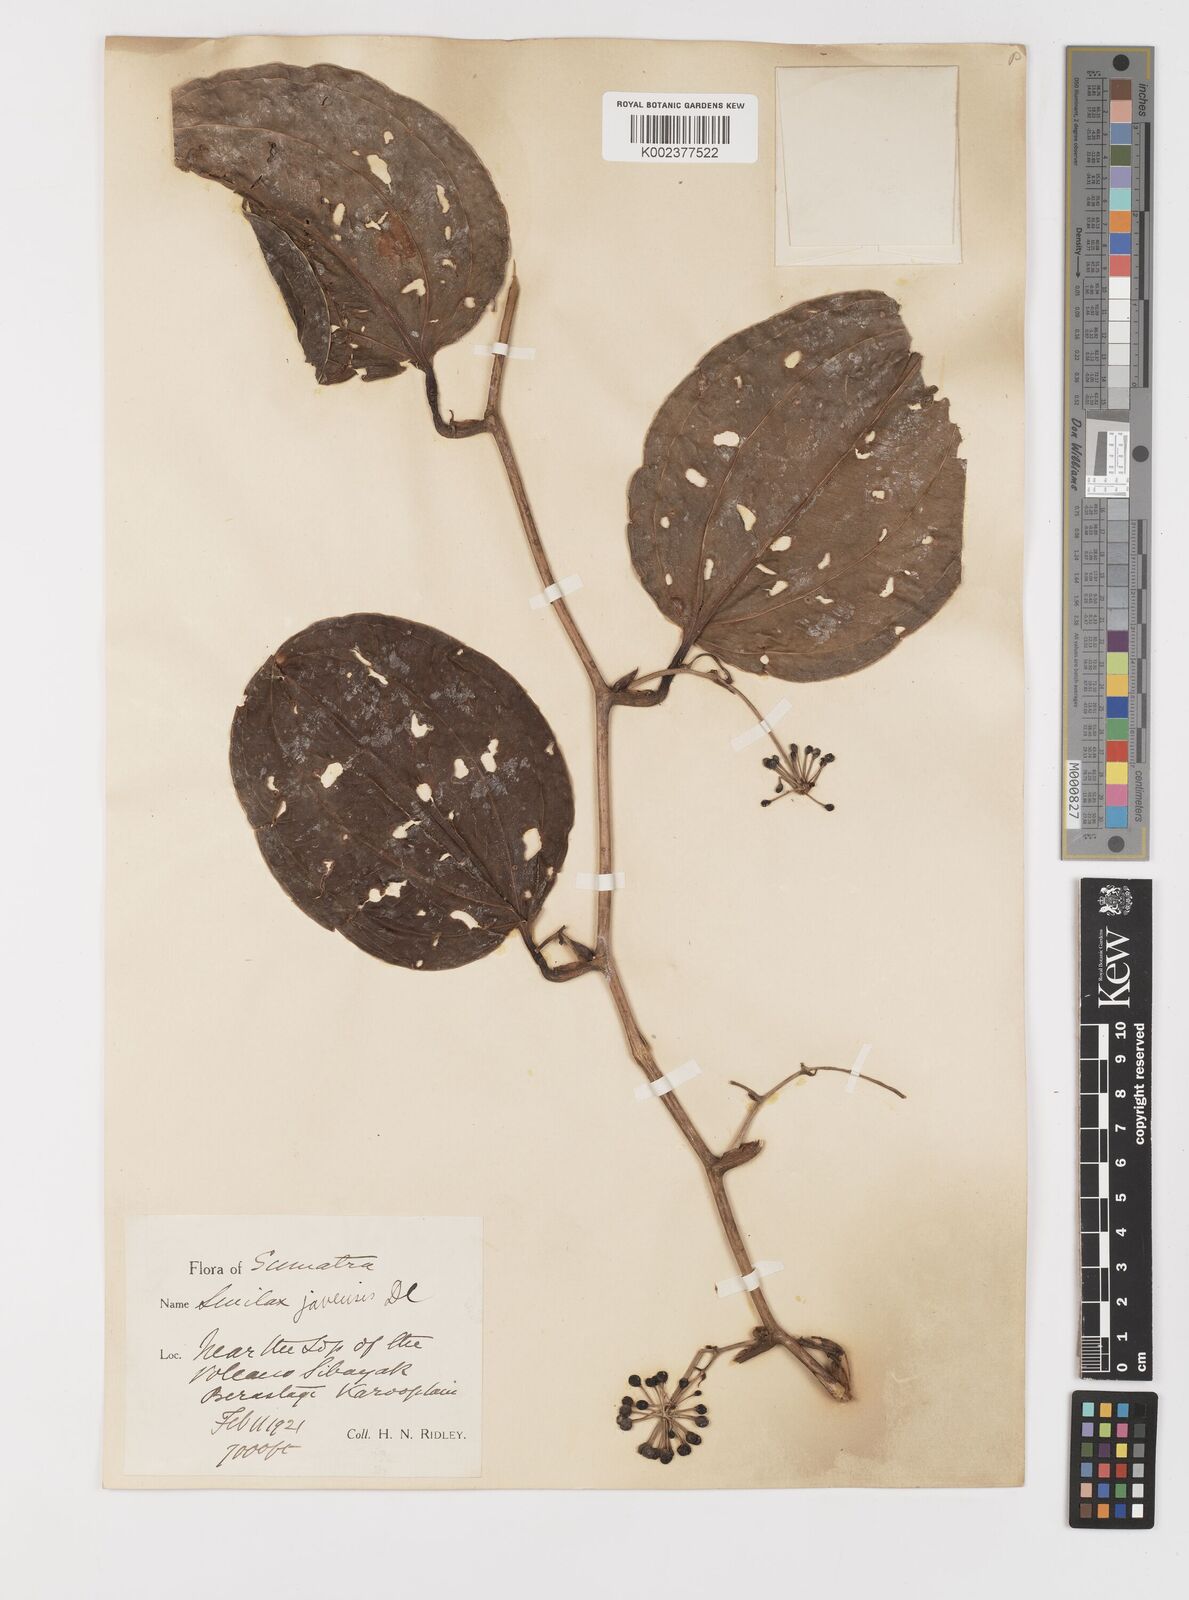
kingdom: Plantae
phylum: Tracheophyta
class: Liliopsida
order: Liliales
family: Smilacaceae
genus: Smilax
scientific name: Smilax javensis
